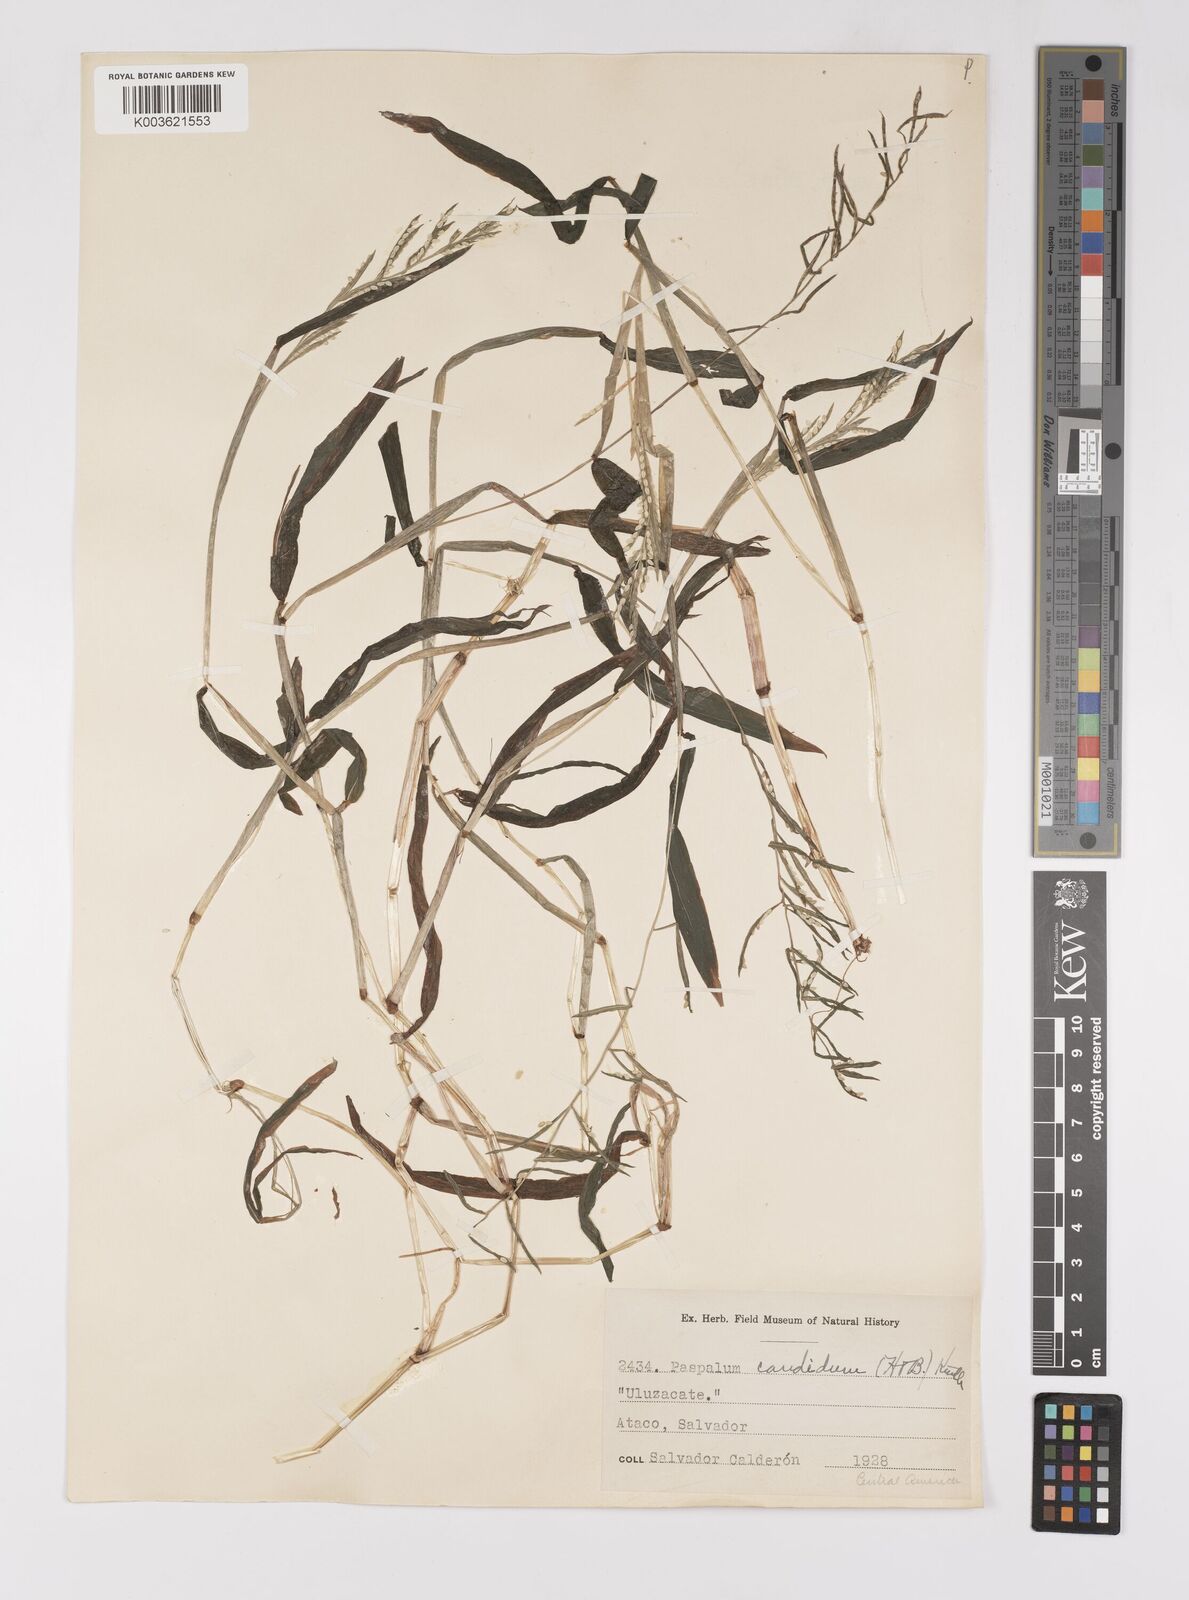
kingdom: Plantae
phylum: Tracheophyta
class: Liliopsida
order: Poales
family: Poaceae
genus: Paspalum
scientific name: Paspalum candidum
